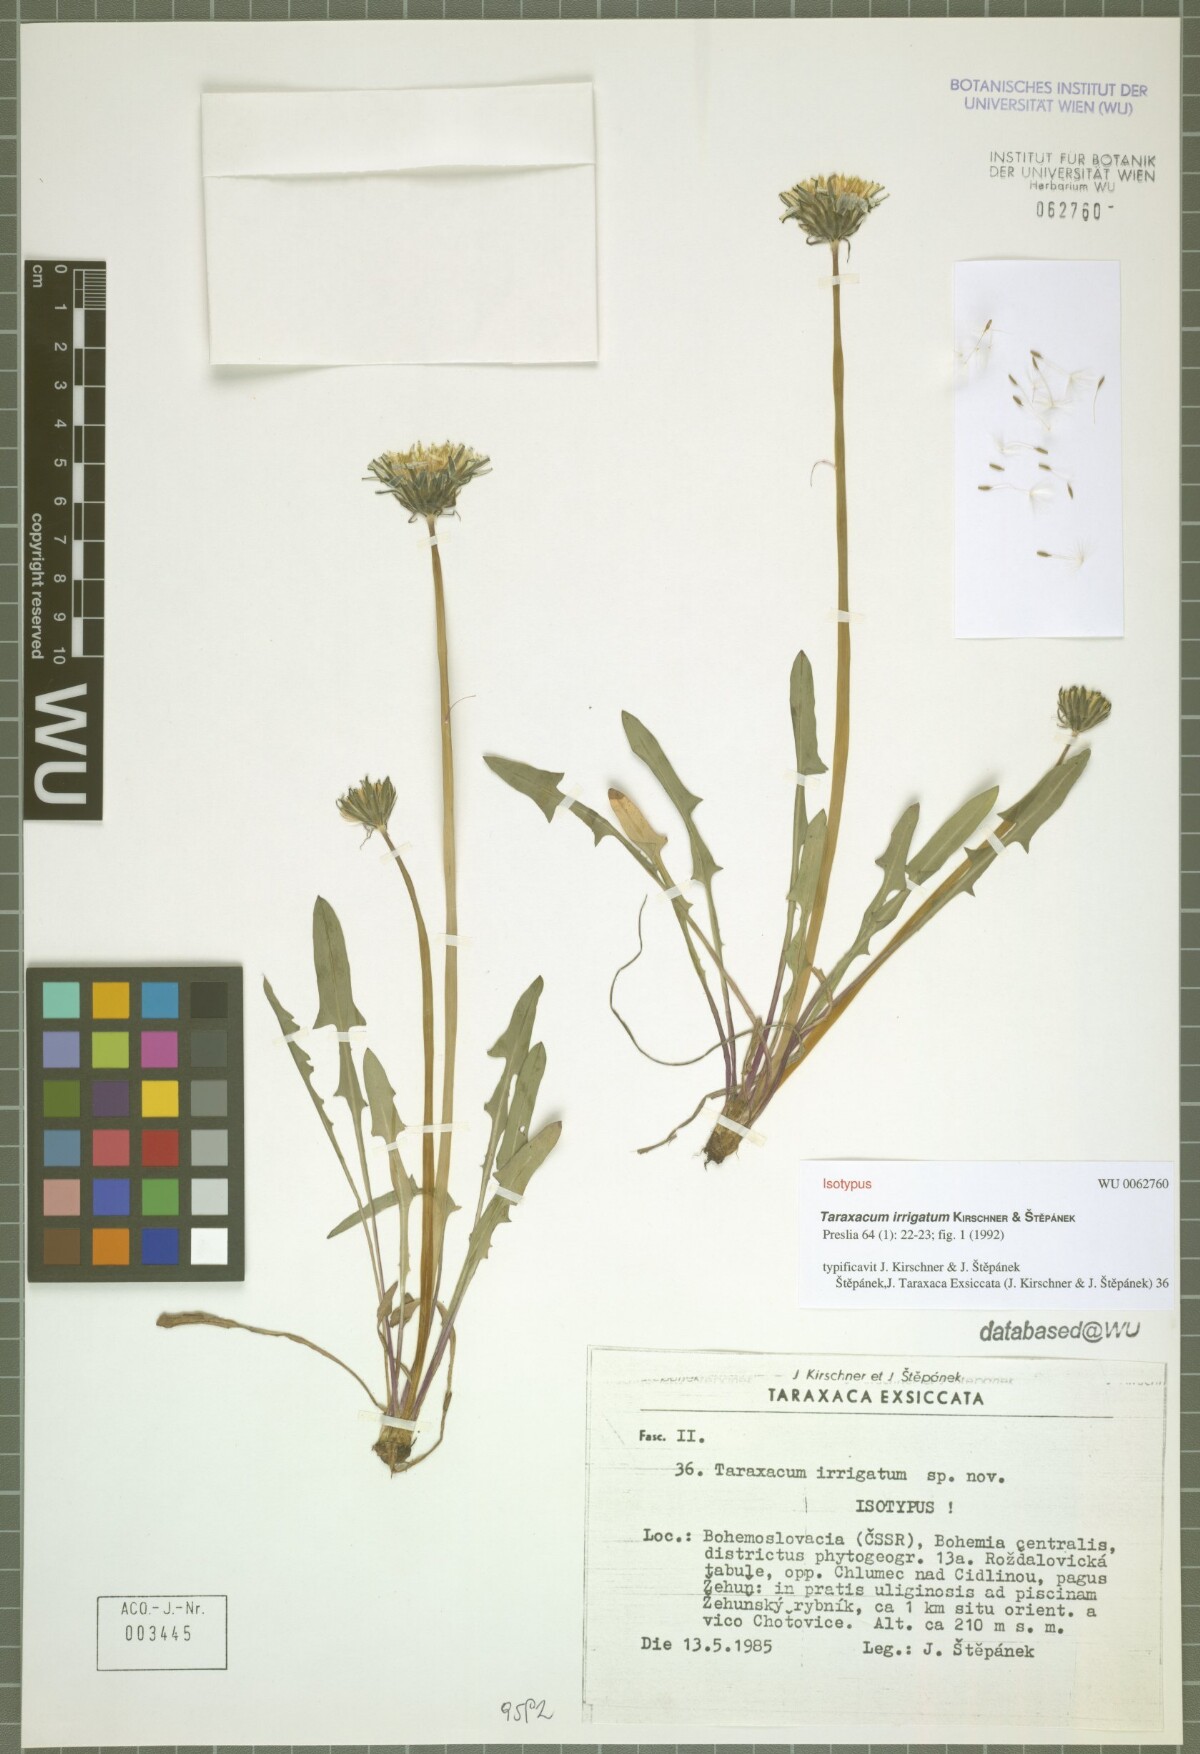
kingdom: Plantae
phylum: Tracheophyta
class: Magnoliopsida
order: Asterales
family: Asteraceae
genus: Taraxacum
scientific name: Taraxacum pseudopalustre
